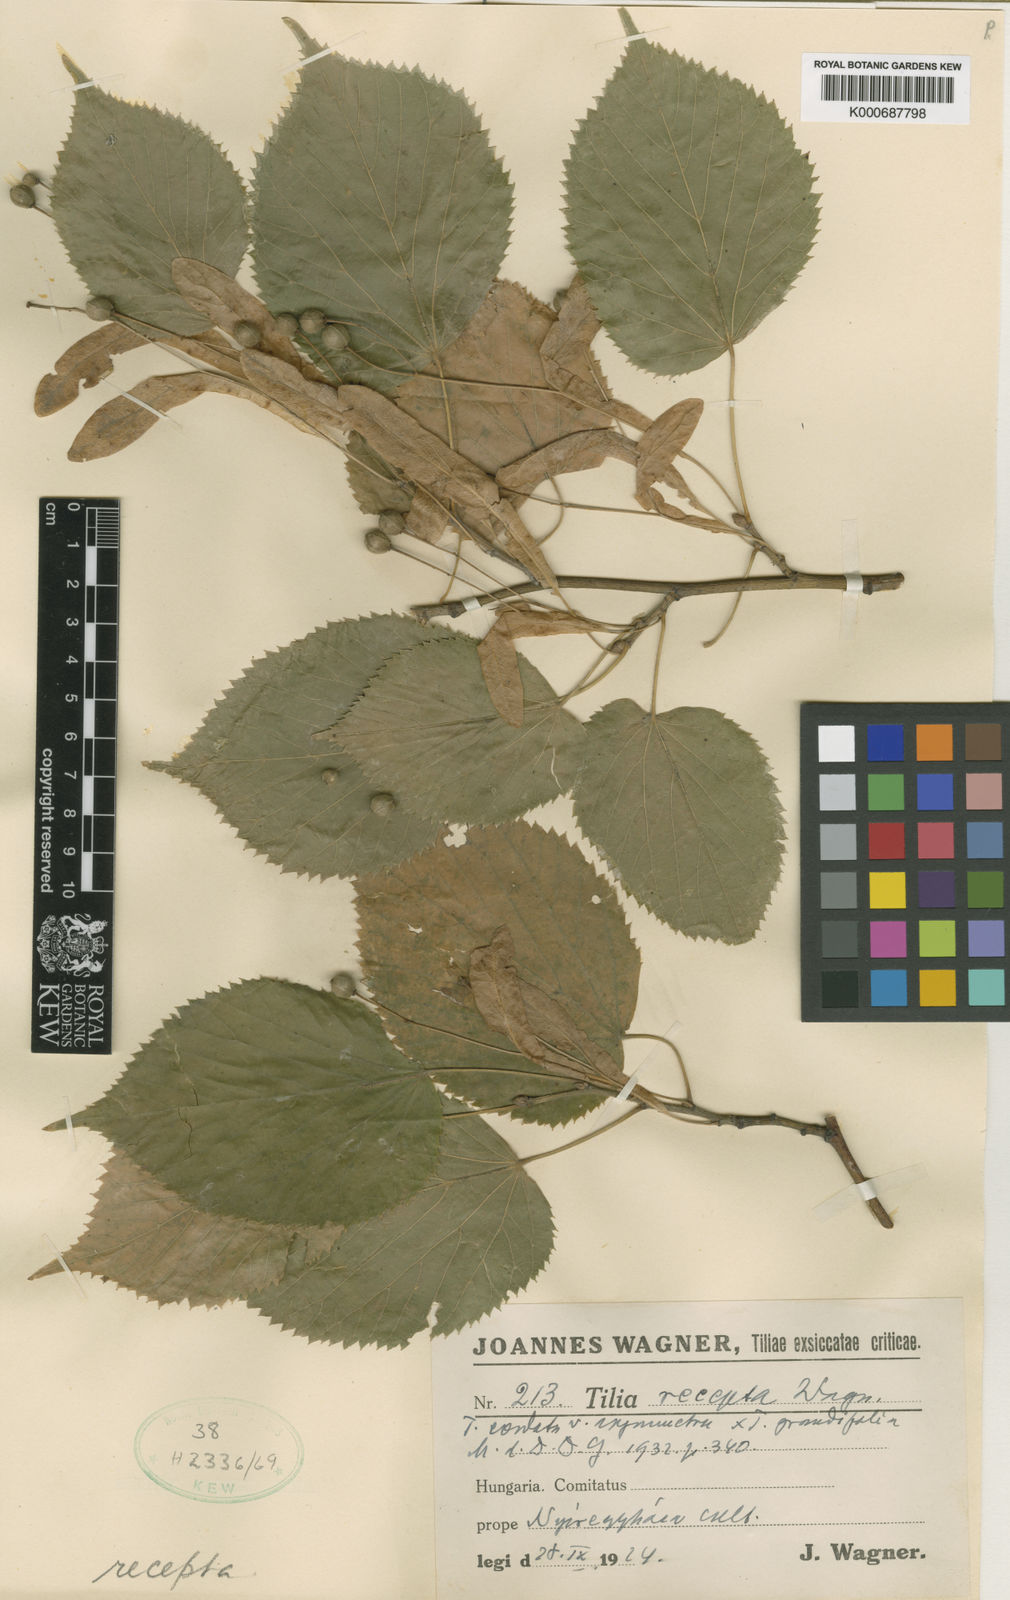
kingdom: Plantae
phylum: Tracheophyta
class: Magnoliopsida
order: Malvales
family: Malvaceae
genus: Tilia
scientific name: Tilia
